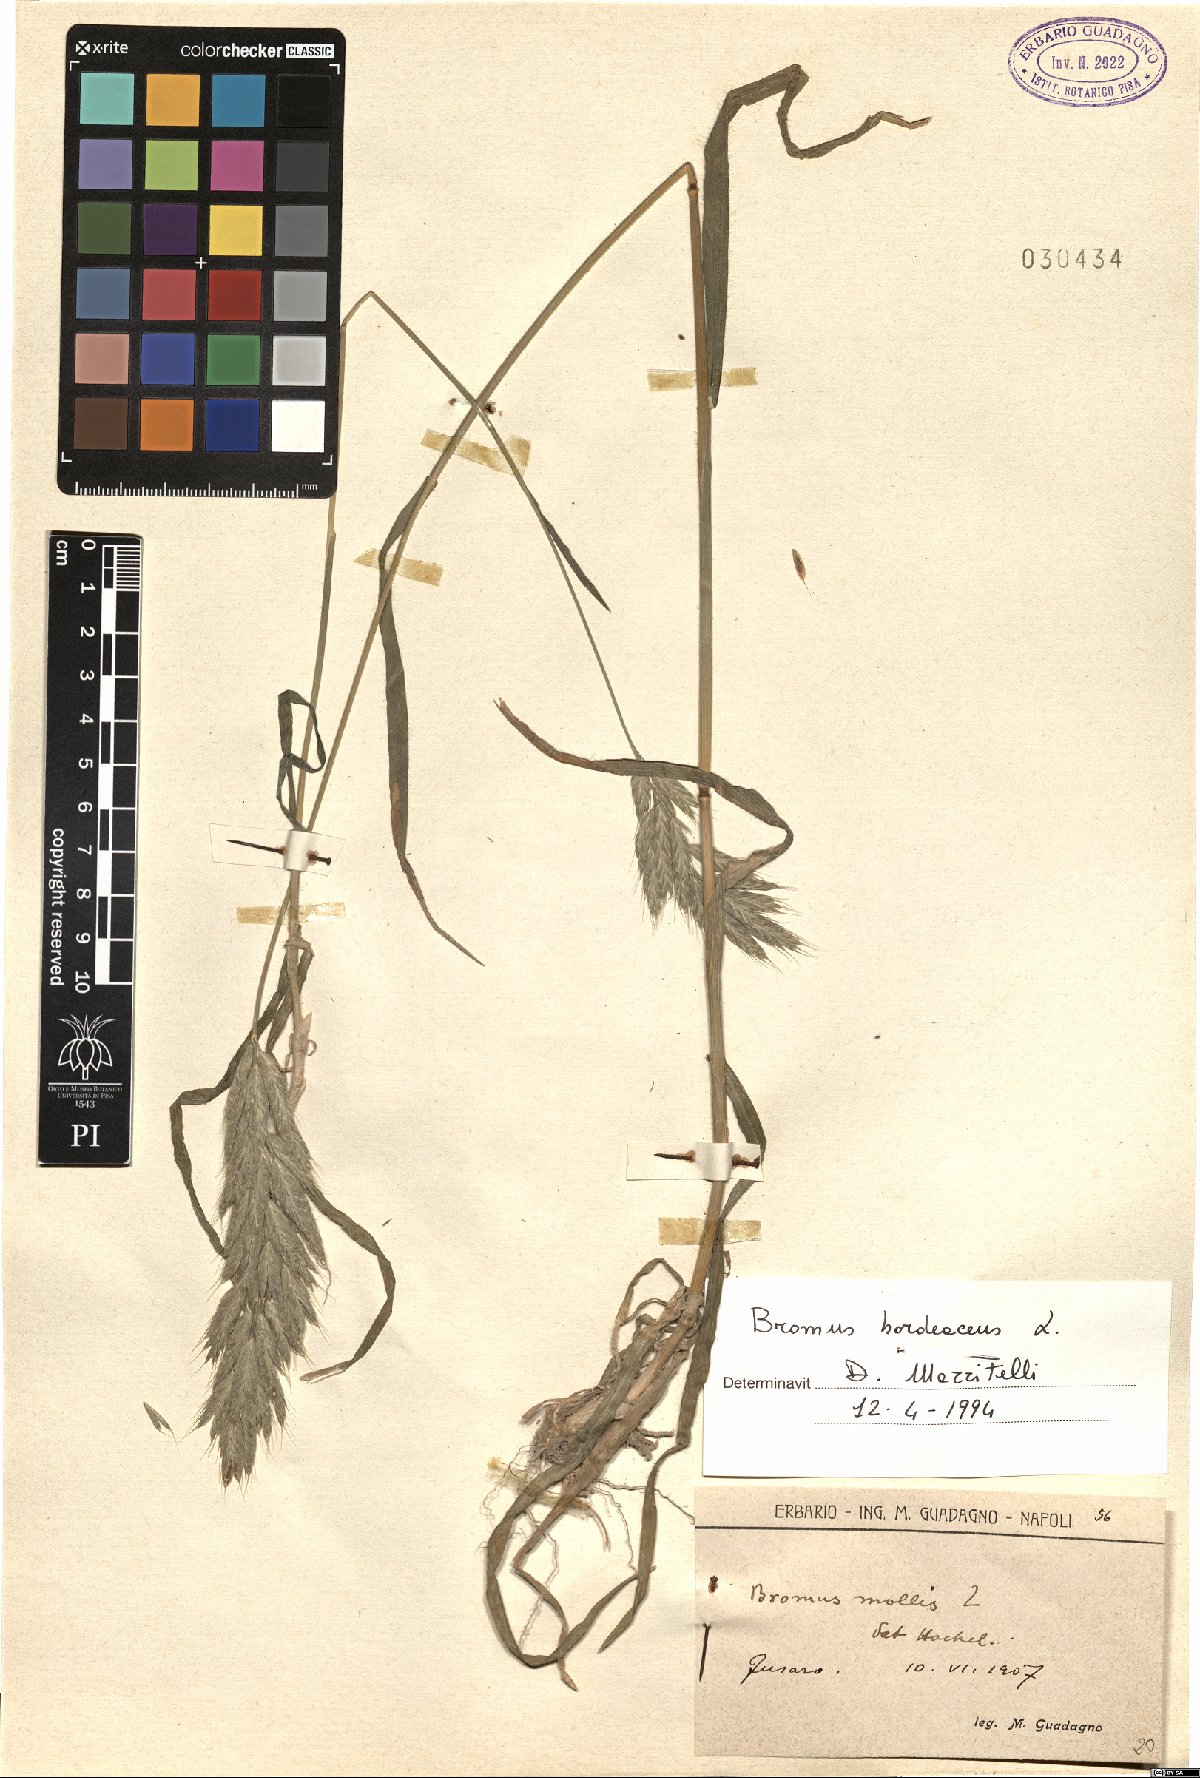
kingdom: Plantae
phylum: Tracheophyta
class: Liliopsida
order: Poales
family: Poaceae
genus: Bromus
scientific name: Bromus hordeaceus
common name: Soft brome
